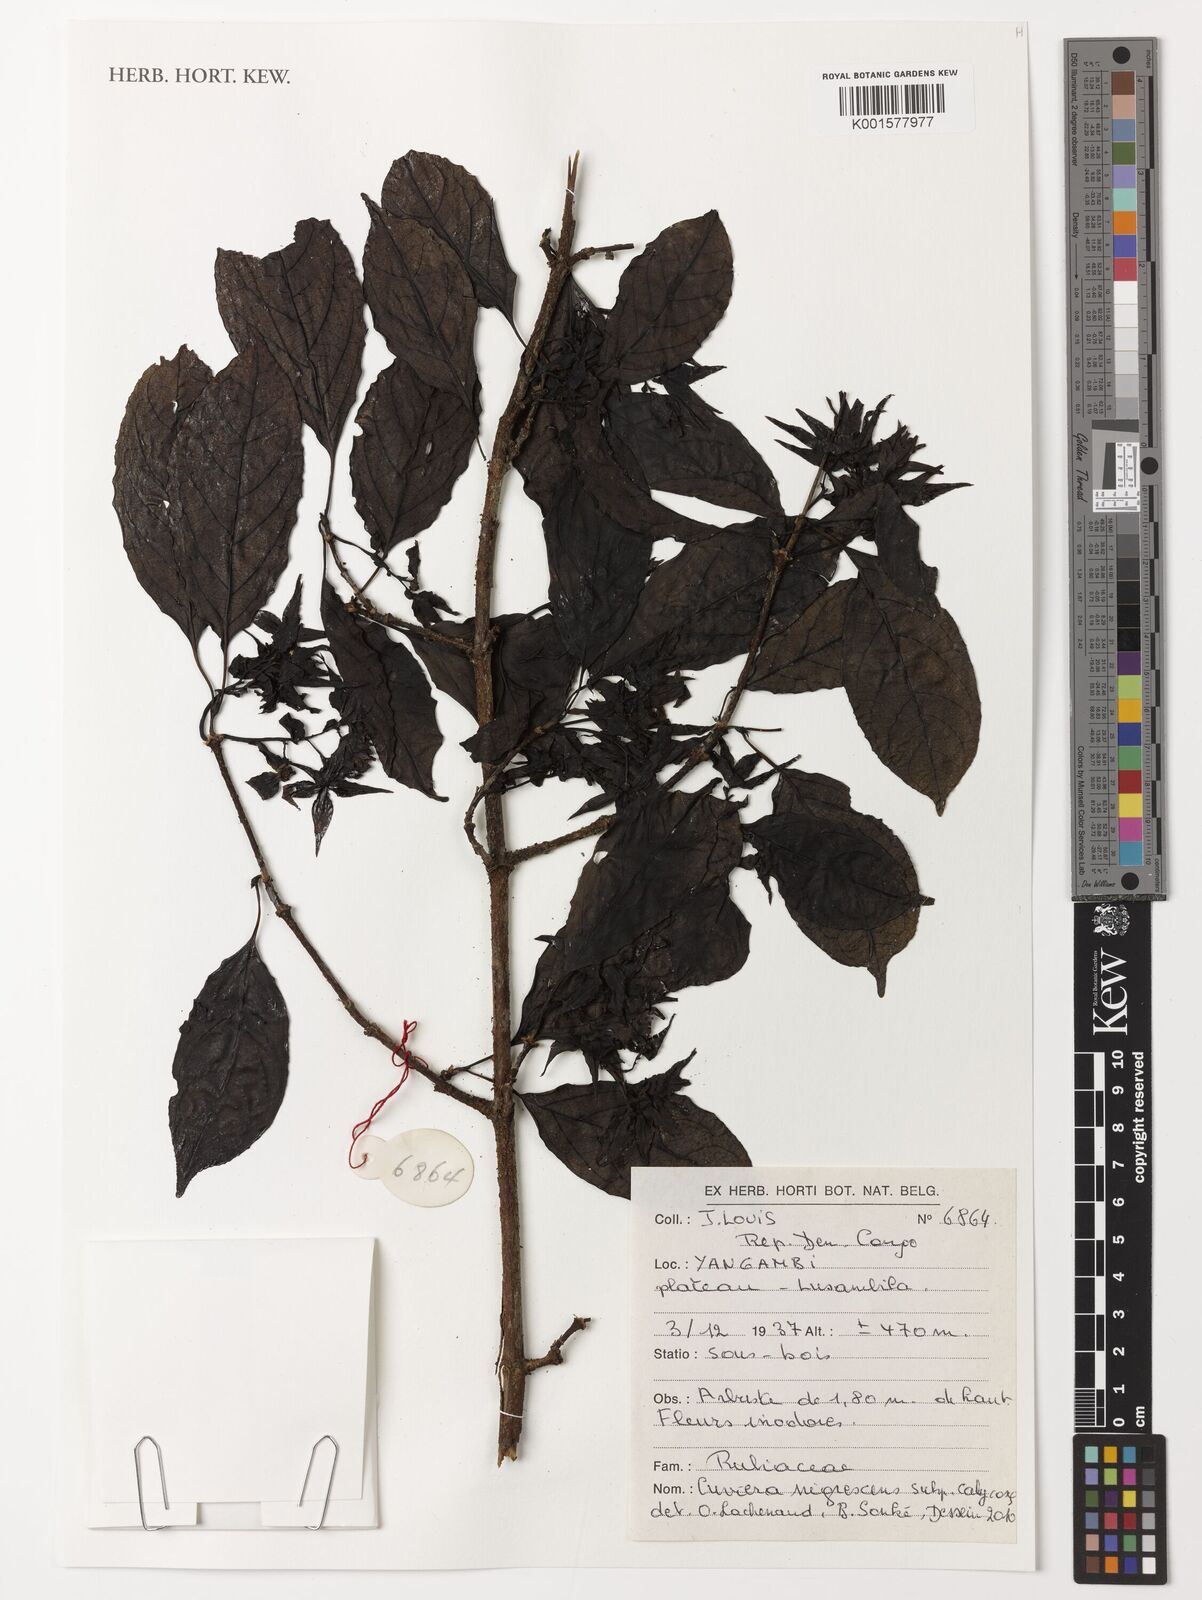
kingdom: Plantae
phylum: Tracheophyta
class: Magnoliopsida
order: Gentianales
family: Rubiaceae
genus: Cuviera
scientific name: Cuviera nigrescens
